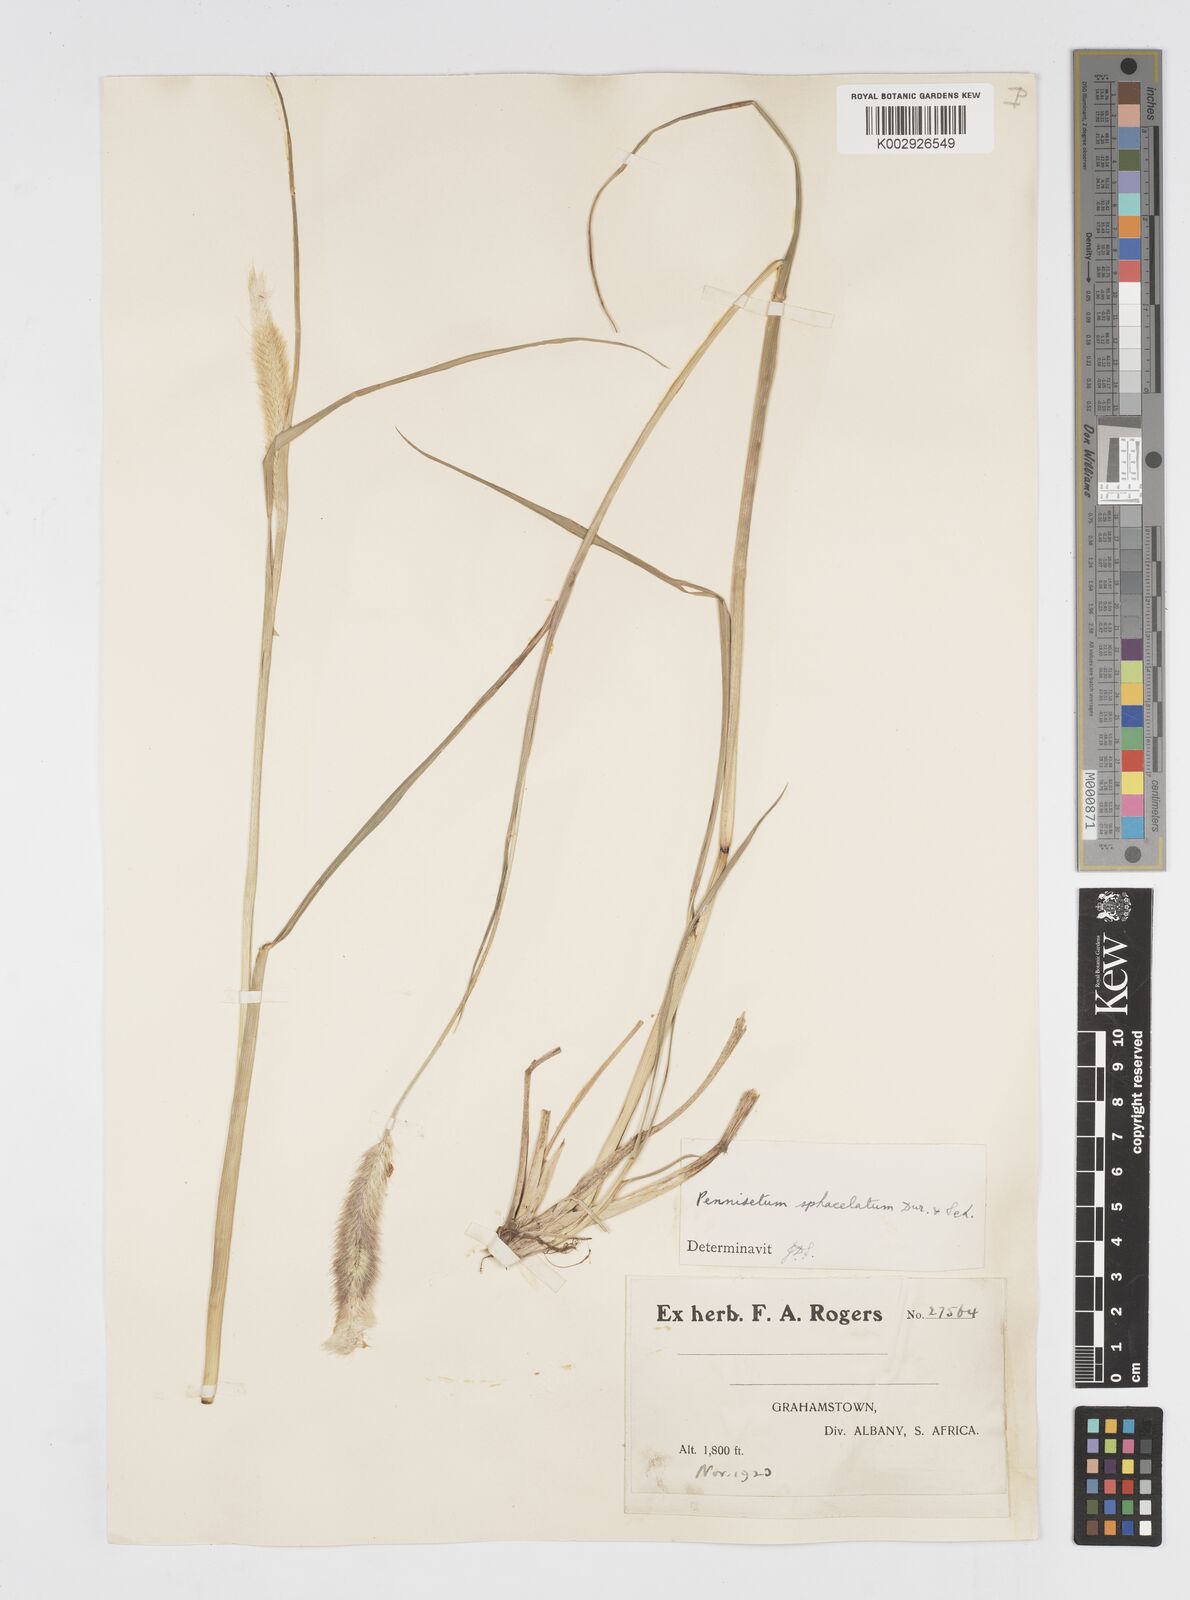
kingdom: Plantae
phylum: Tracheophyta
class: Liliopsida
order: Poales
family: Poaceae
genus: Cenchrus
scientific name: Cenchrus sphacelatus
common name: Bulgras
